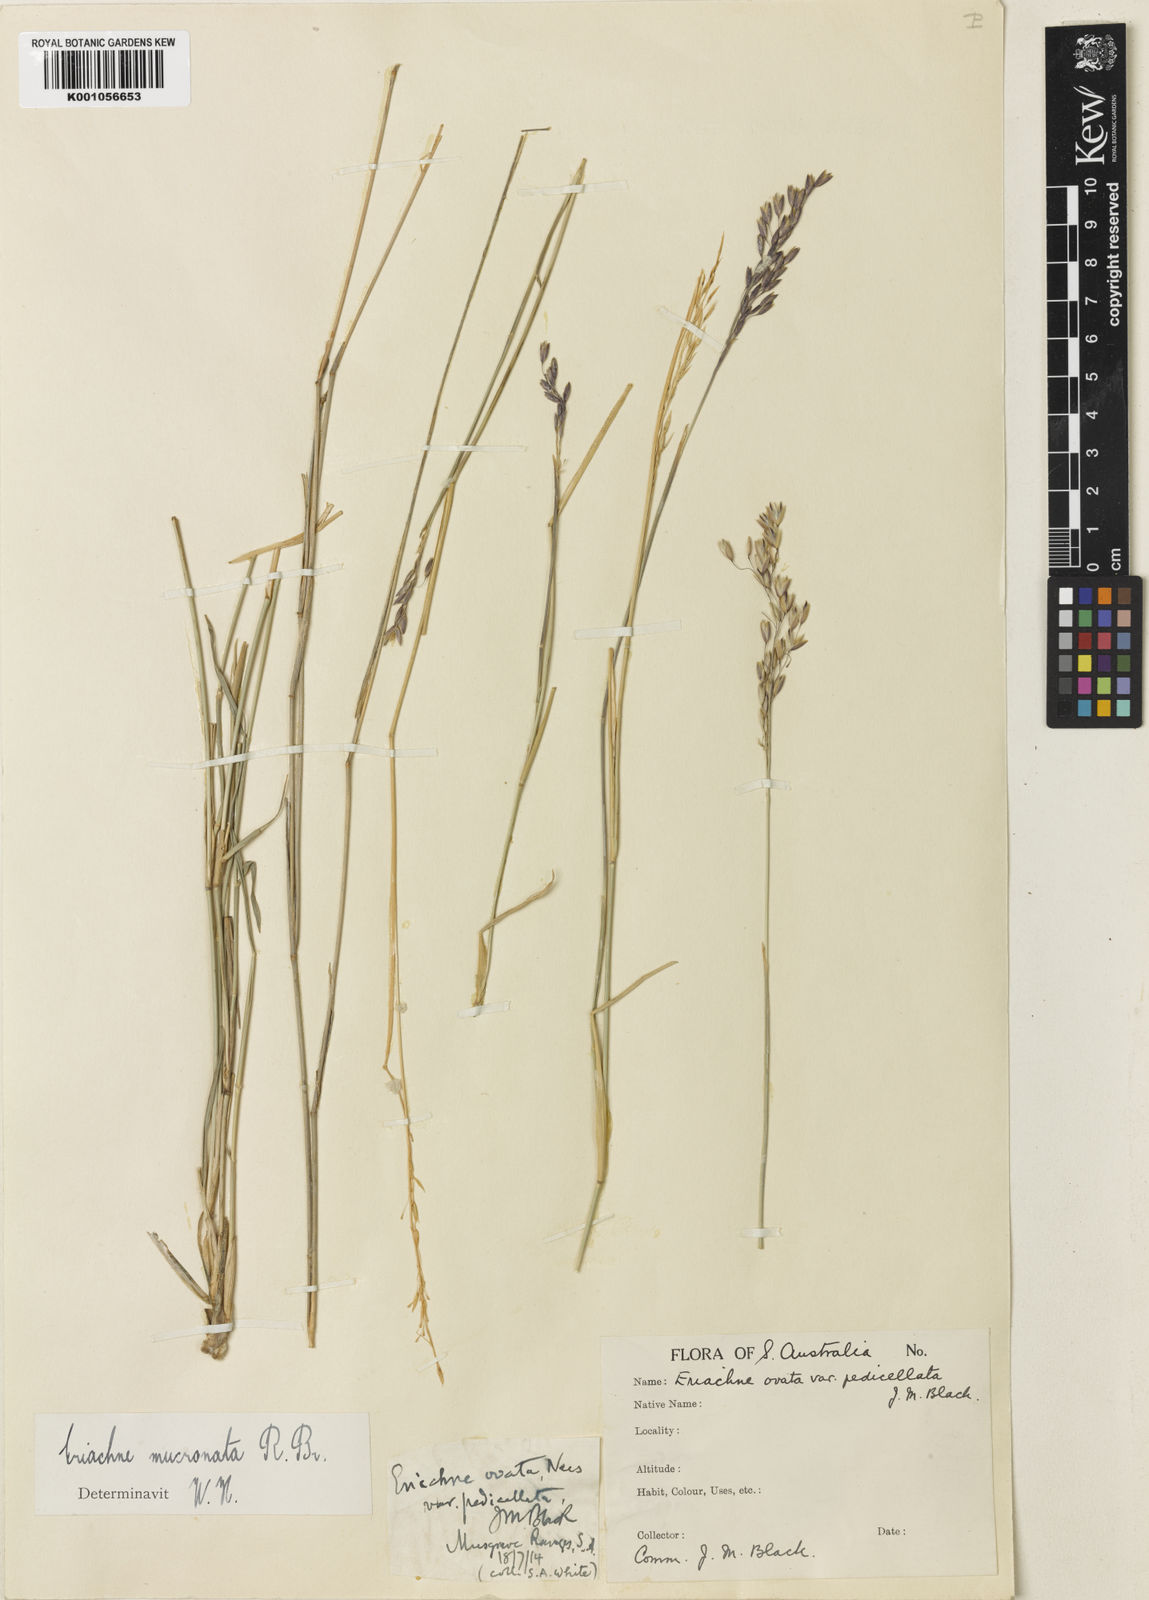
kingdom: Plantae
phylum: Tracheophyta
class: Liliopsida
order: Poales
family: Poaceae
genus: Eriachne
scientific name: Eriachne mucronata
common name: Mountain wanderrie grass
